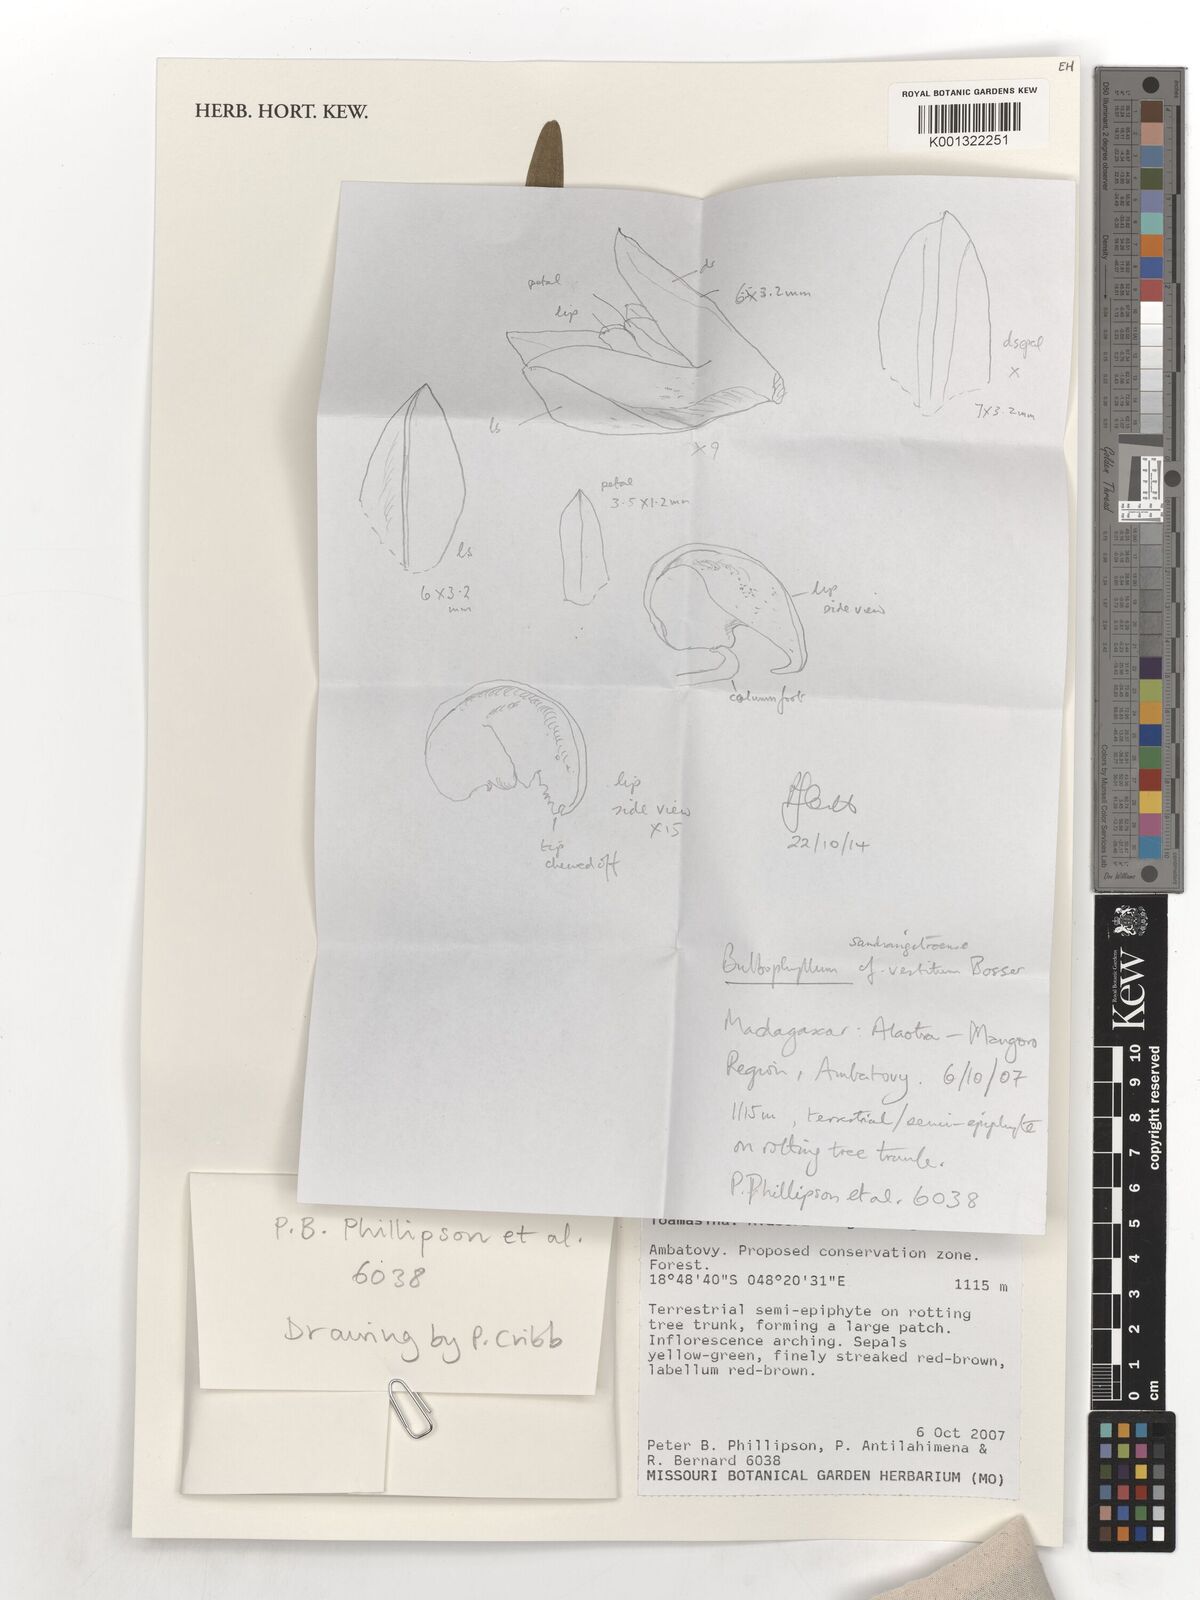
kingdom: Plantae
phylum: Tracheophyta
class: Liliopsida
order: Asparagales
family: Orchidaceae
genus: Bulbophyllum
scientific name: Bulbophyllum
